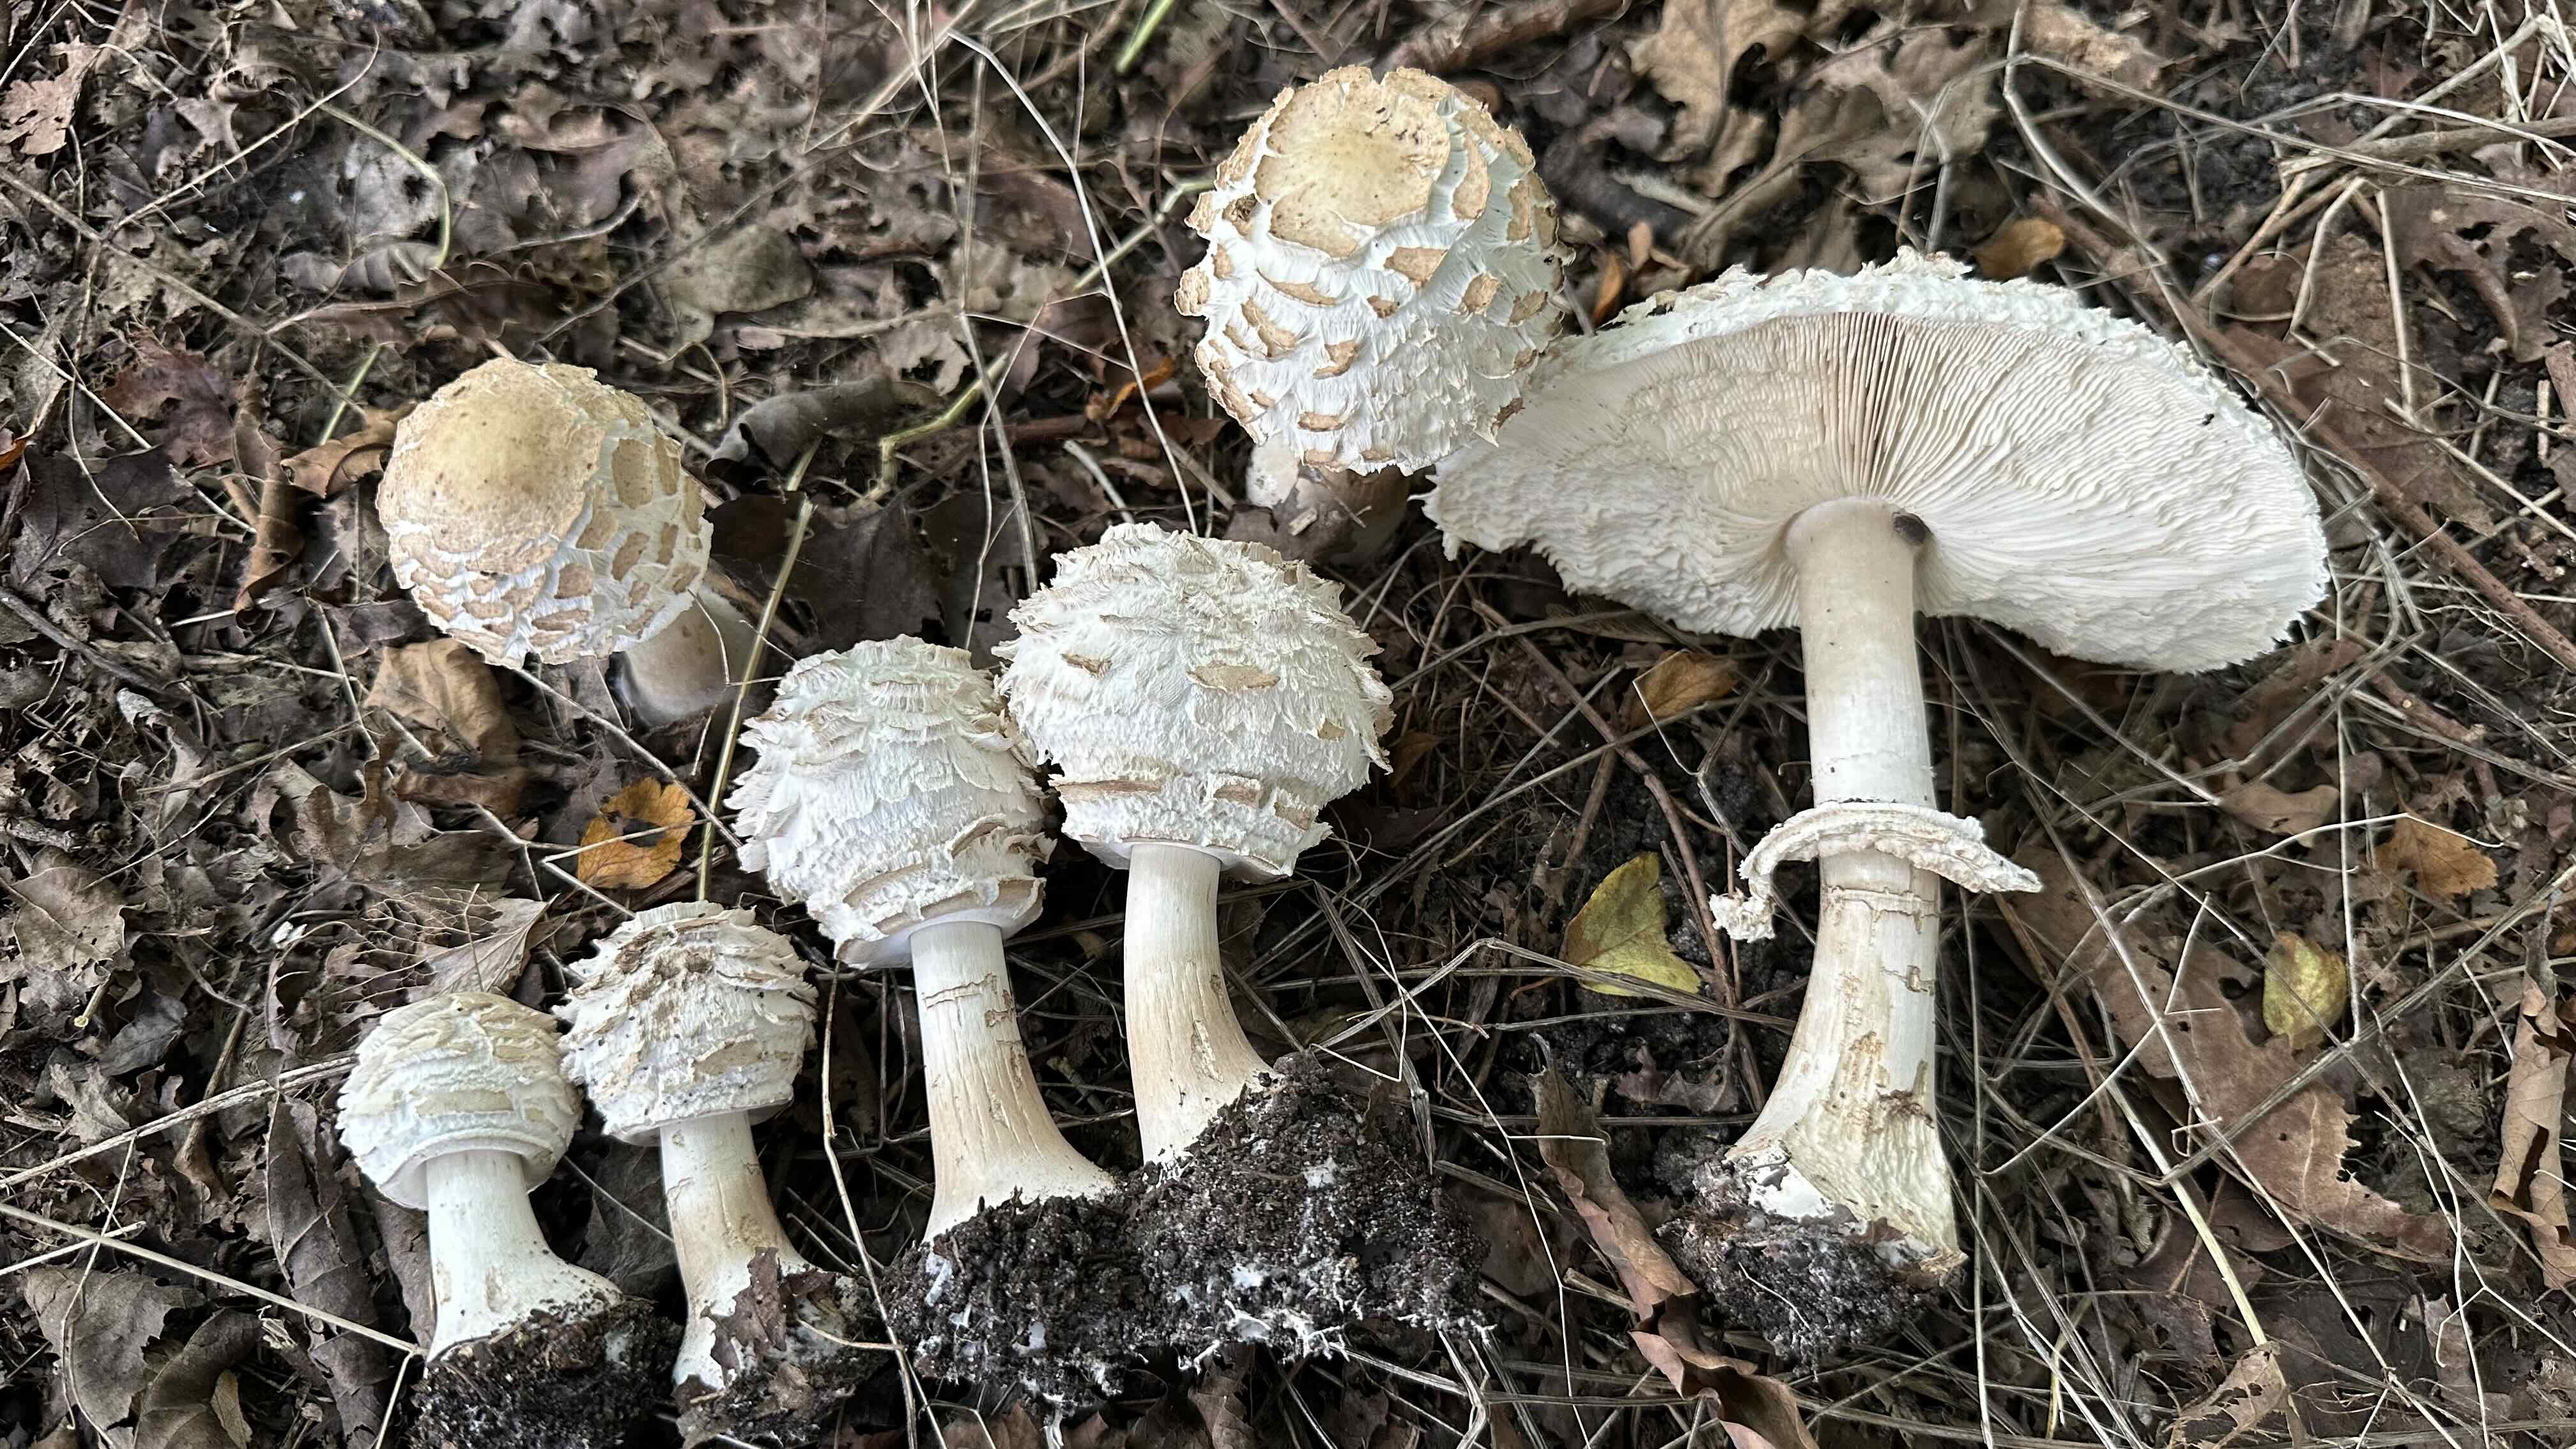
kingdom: Fungi
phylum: Basidiomycota
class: Agaricomycetes
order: Agaricales
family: Agaricaceae
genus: Chlorophyllum
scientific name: Chlorophyllum olivieri
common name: almindelig rabarberhat
